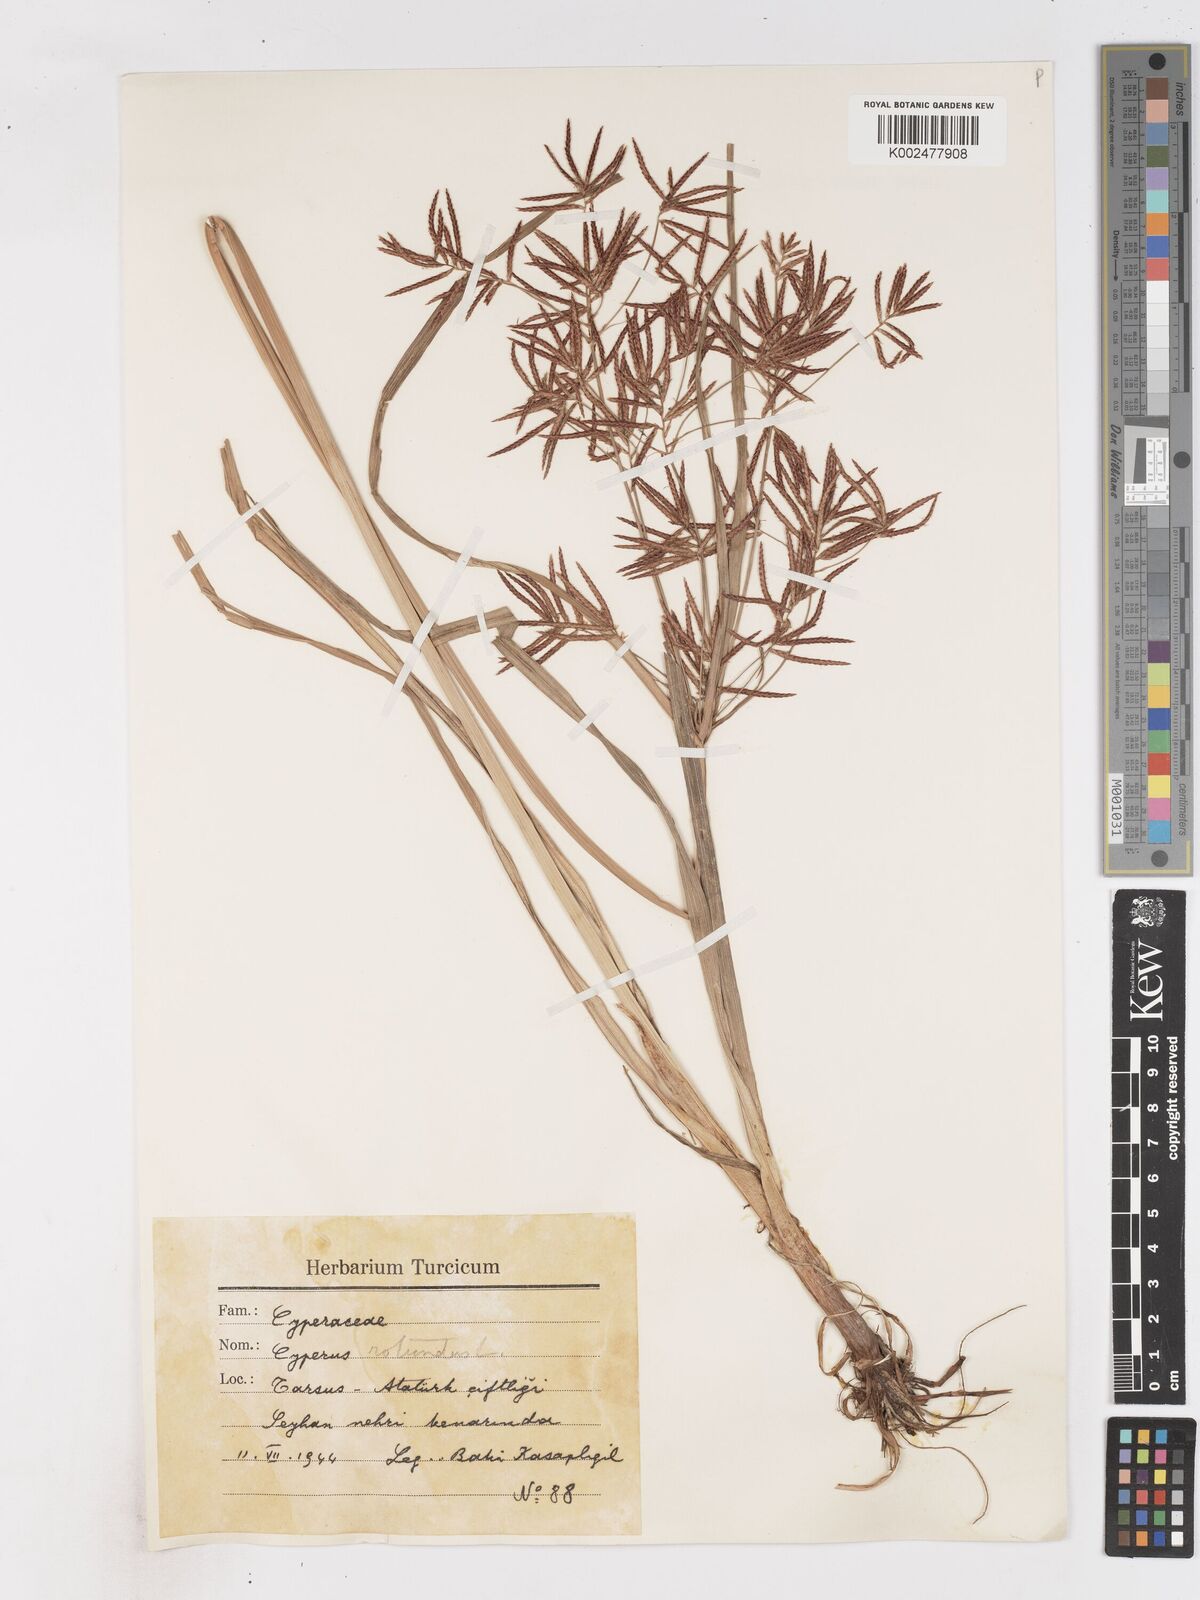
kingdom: Plantae
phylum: Tracheophyta
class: Liliopsida
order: Poales
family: Cyperaceae
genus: Cyperus
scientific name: Cyperus rotundus
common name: Nutgrass
